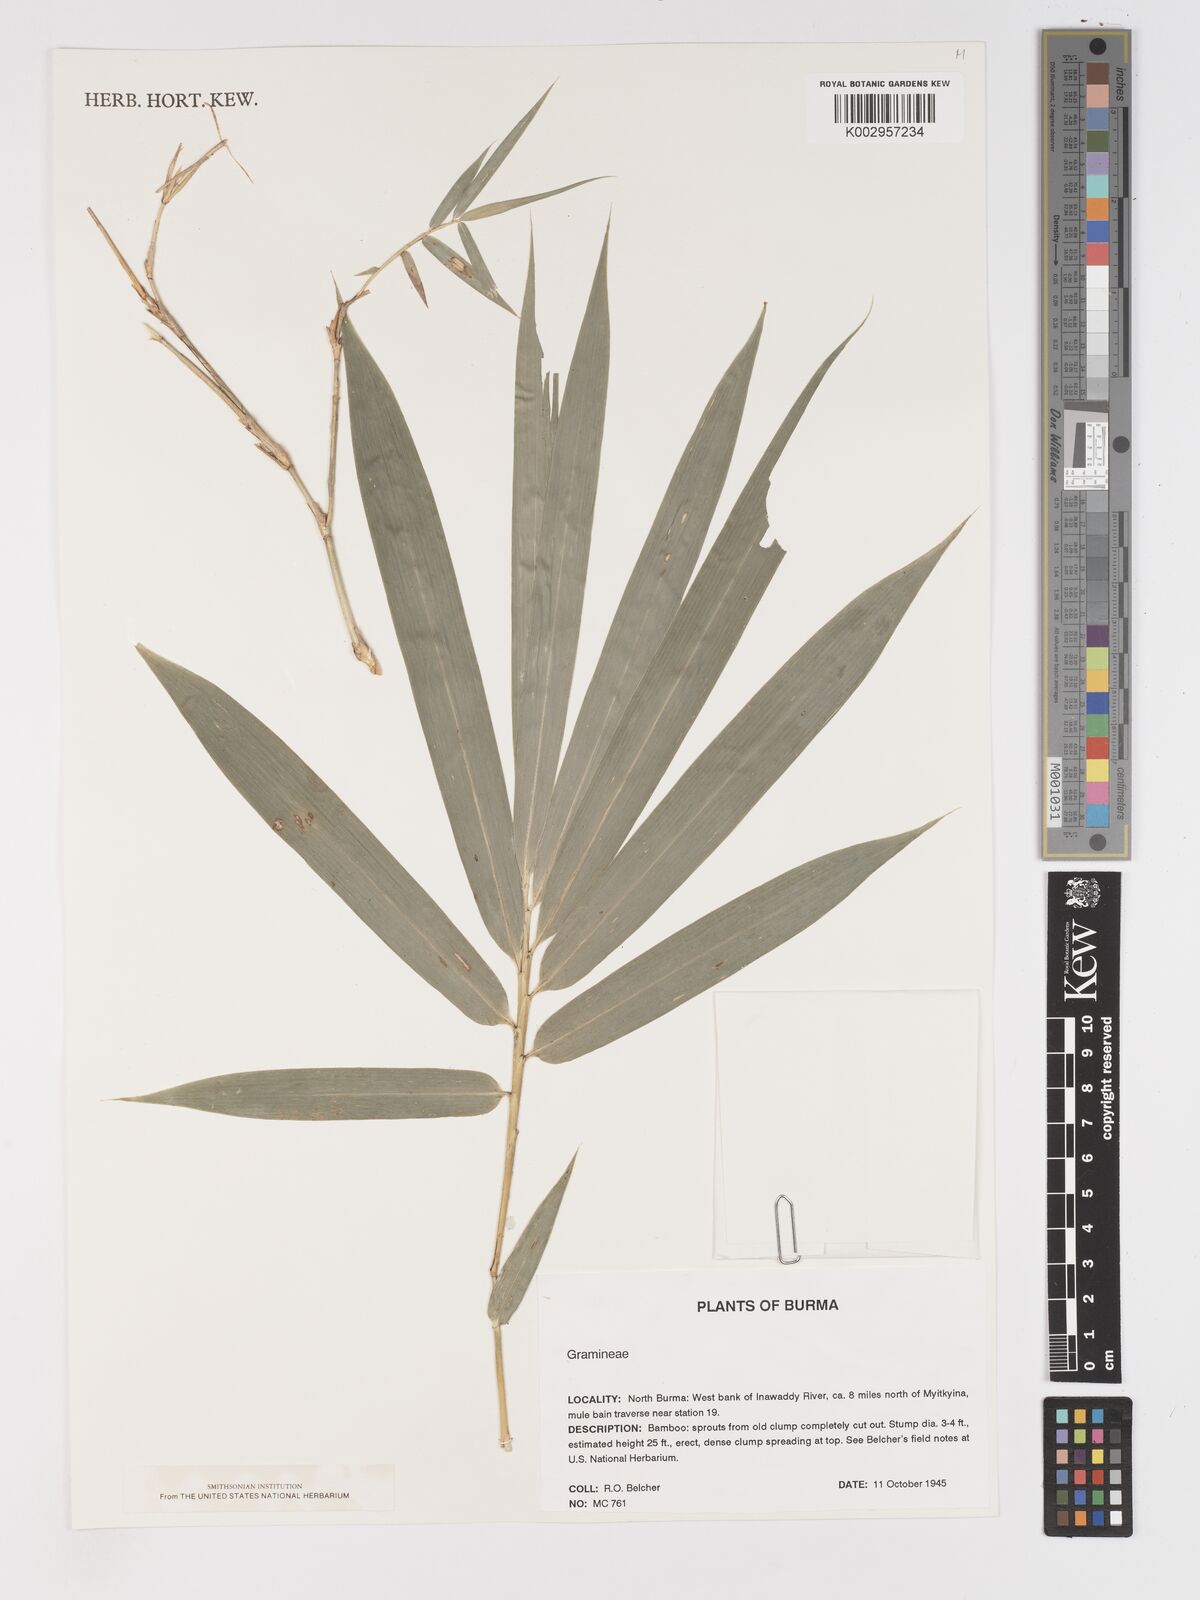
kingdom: Plantae
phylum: Tracheophyta
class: Liliopsida
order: Poales
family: Poaceae
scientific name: Poaceae
